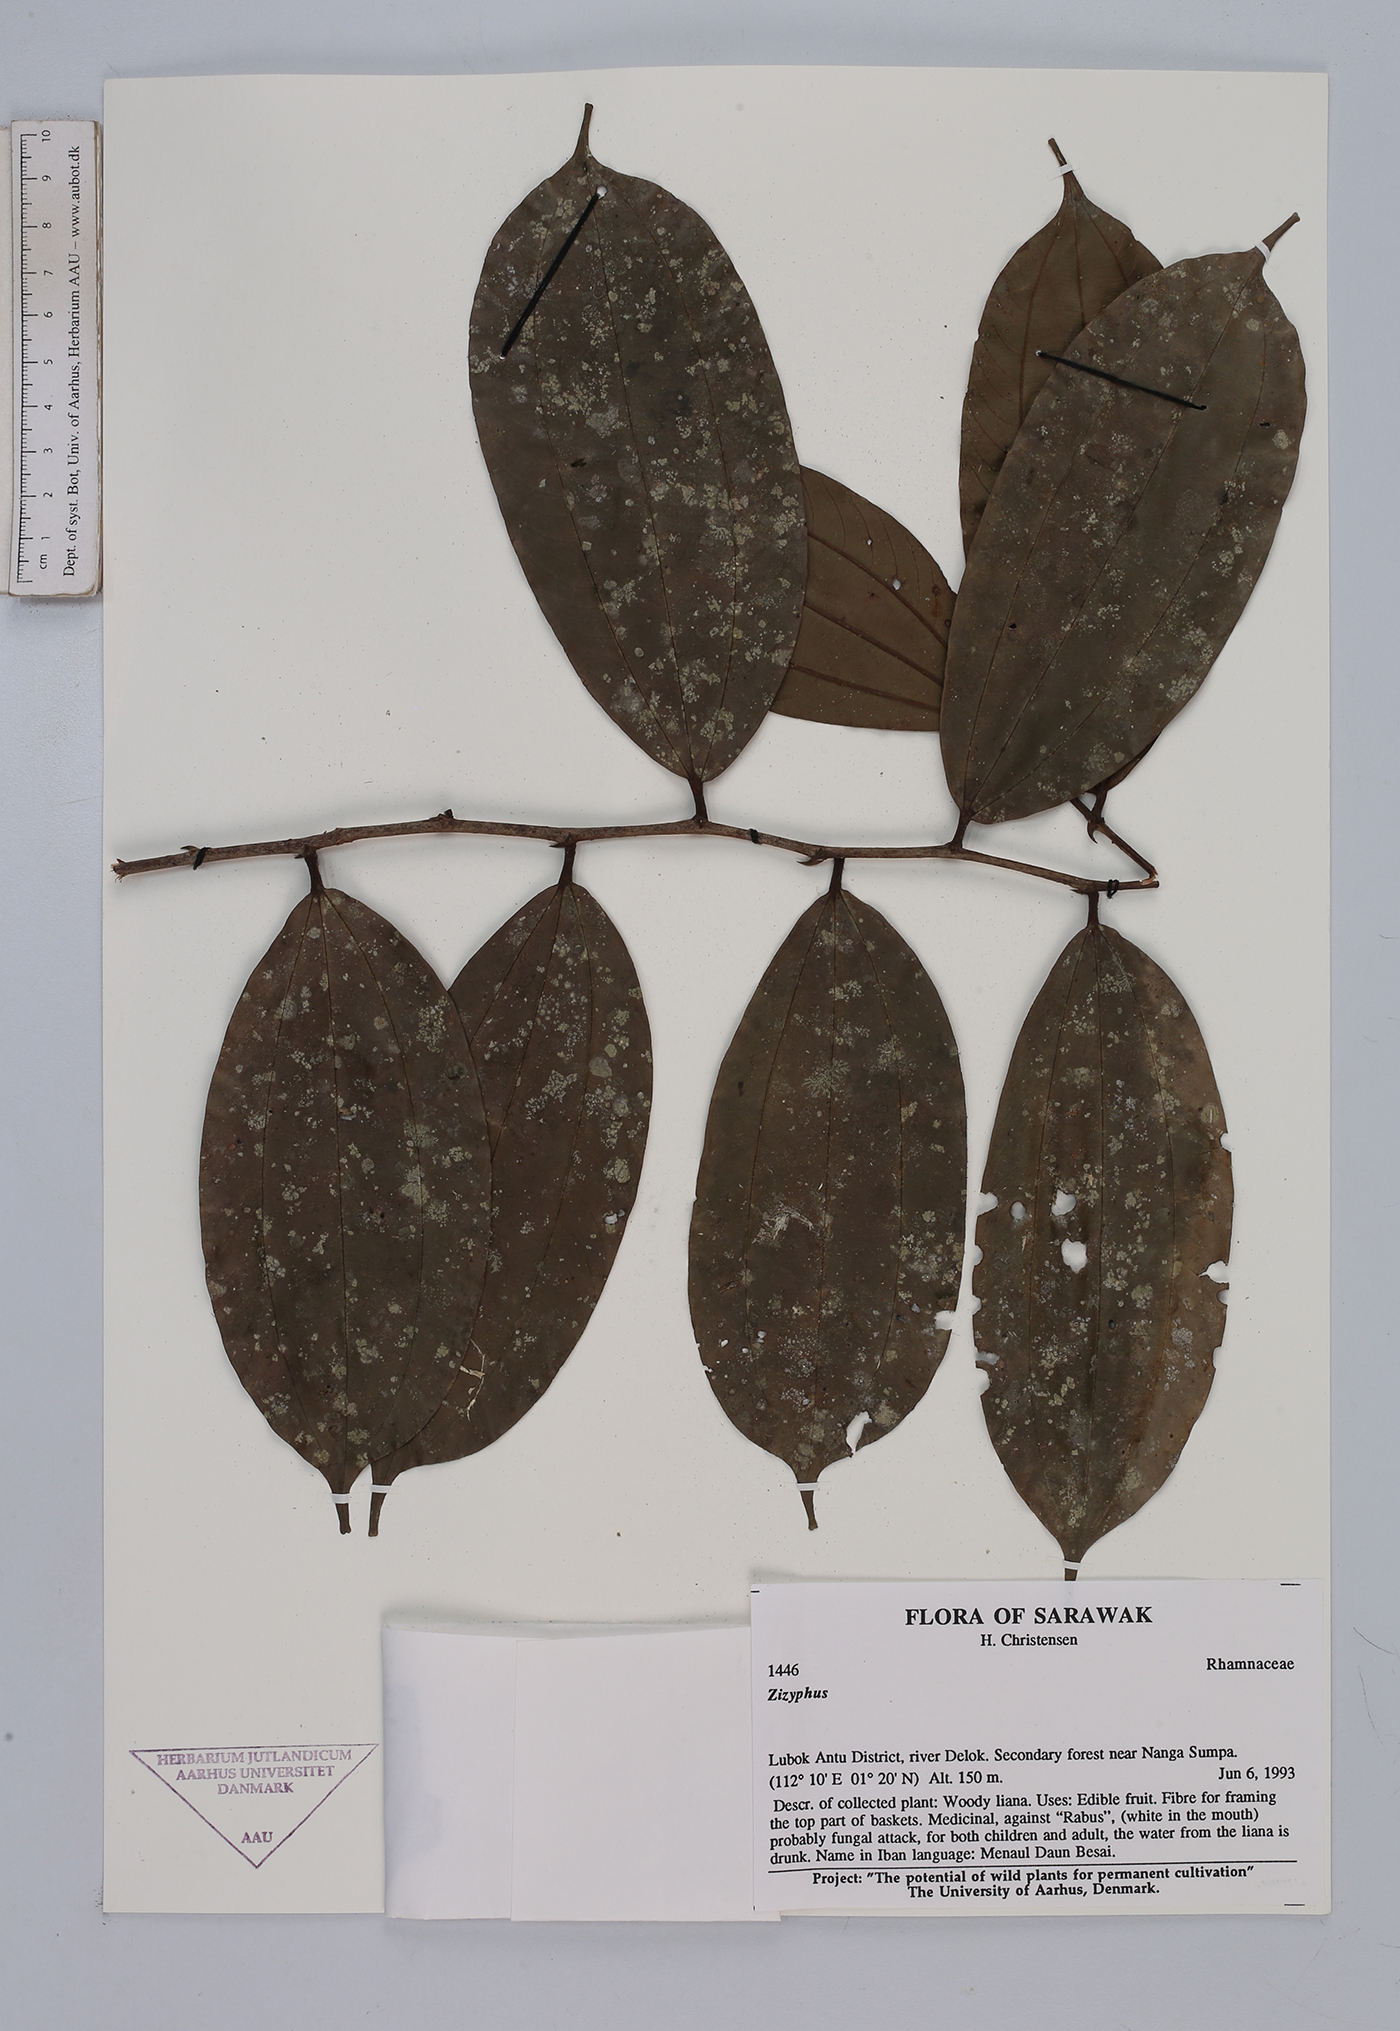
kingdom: Plantae
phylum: Tracheophyta
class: Magnoliopsida
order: Rosales
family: Rhamnaceae
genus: Ziziphus
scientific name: Ziziphus
